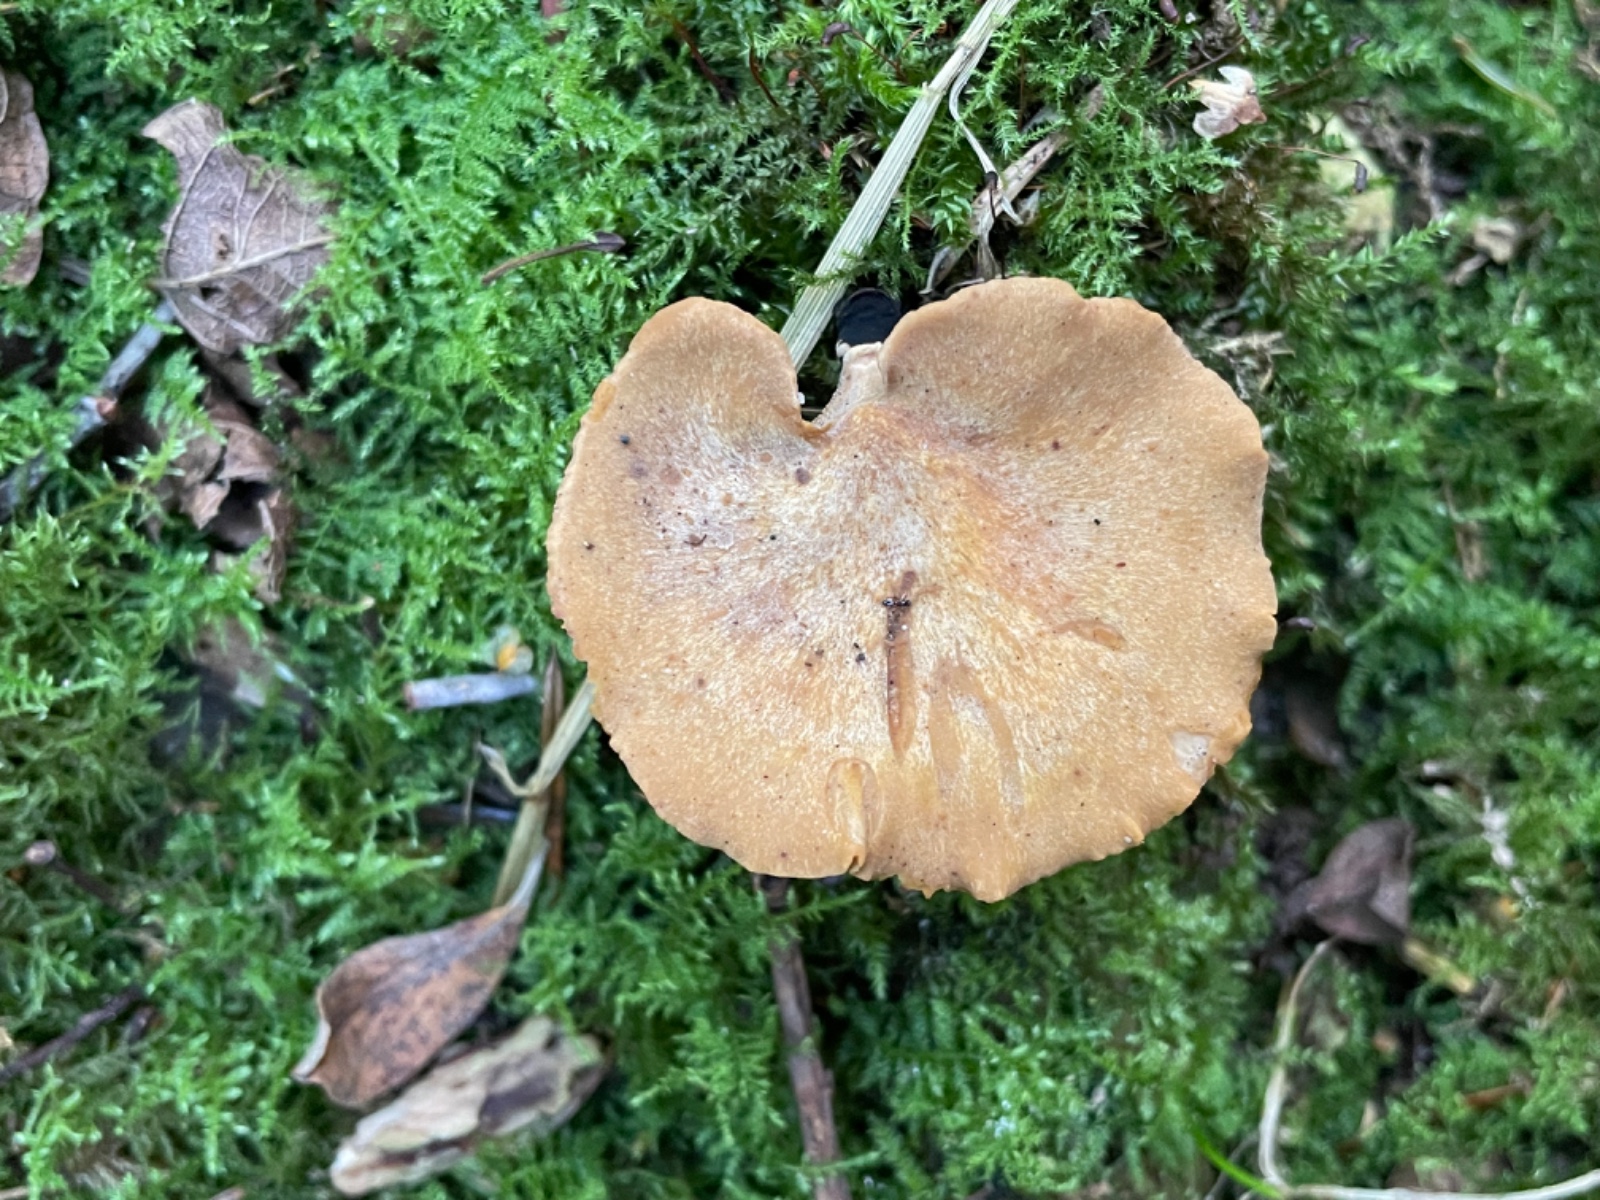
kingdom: Fungi
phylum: Basidiomycota
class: Agaricomycetes
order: Polyporales
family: Polyporaceae
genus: Cerioporus
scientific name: Cerioporus varius
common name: foranderlig stilkporesvamp
